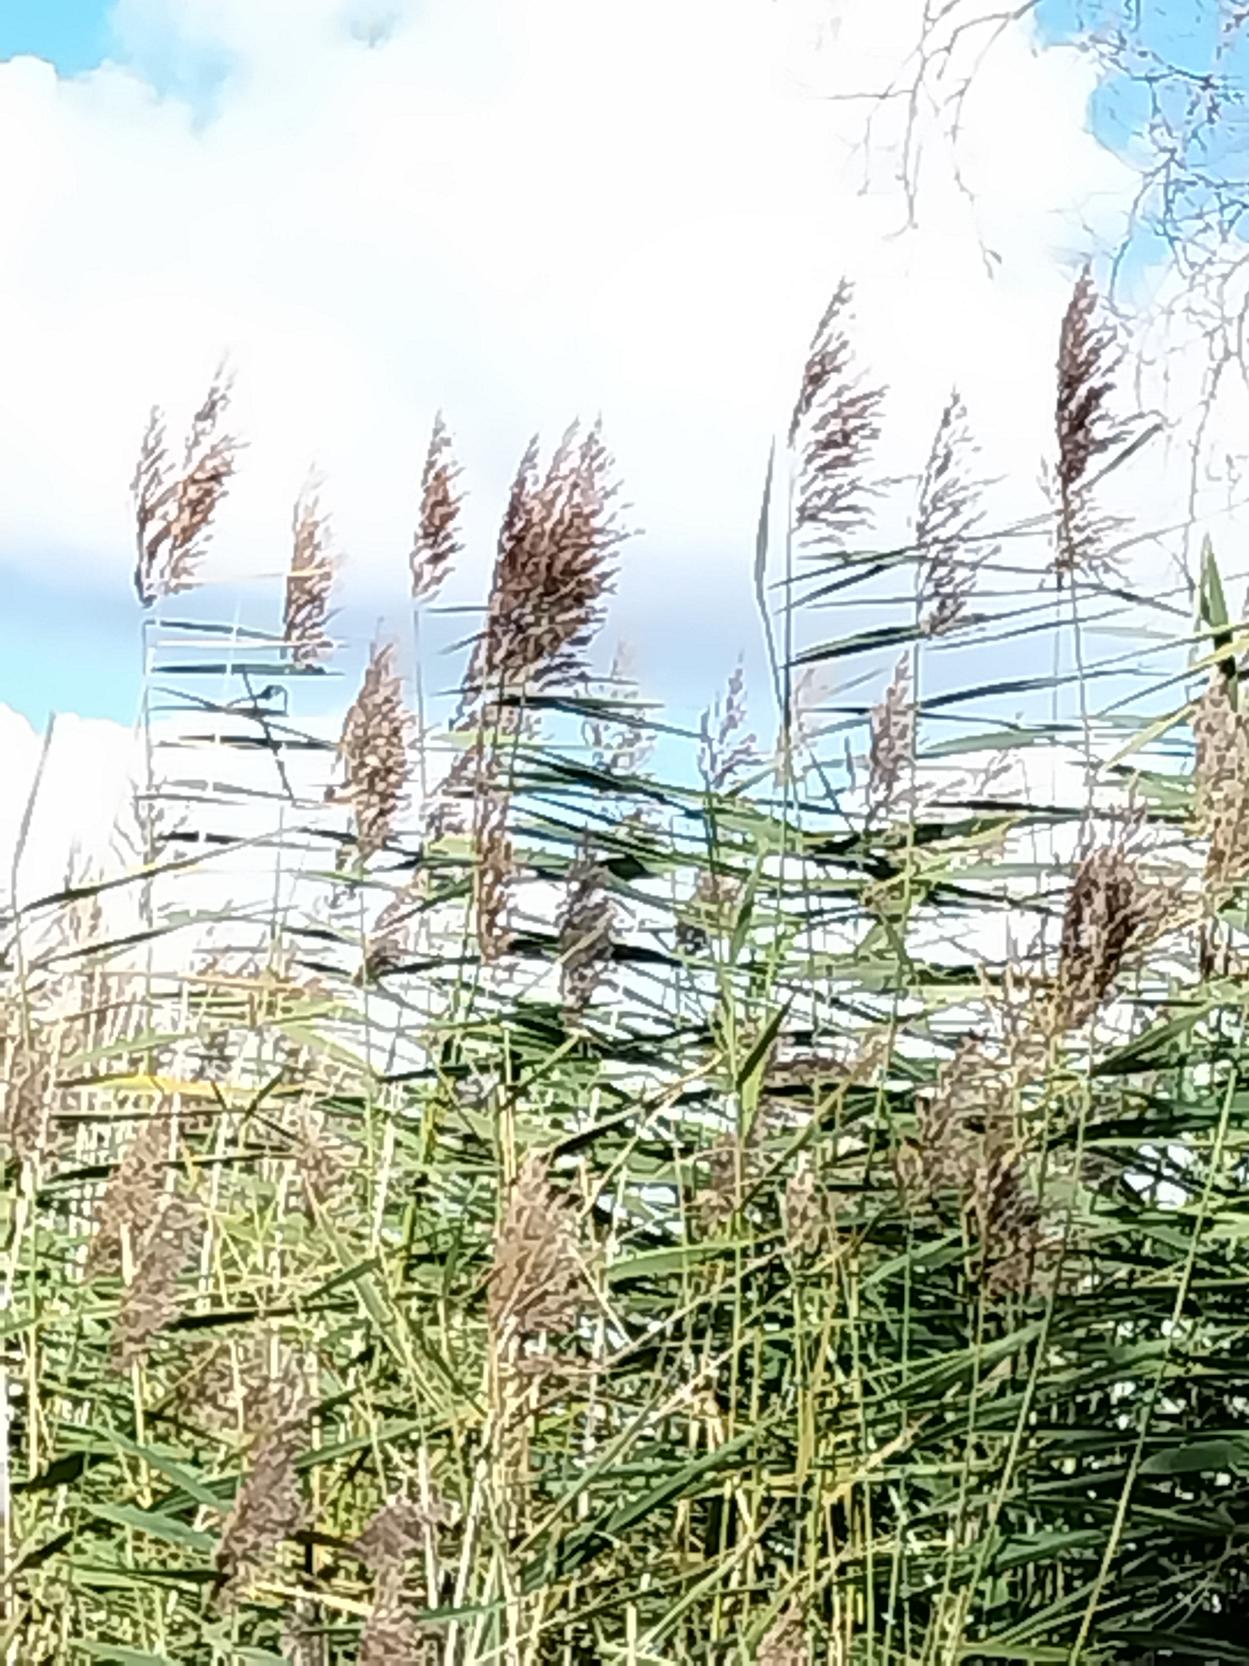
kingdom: Plantae
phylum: Tracheophyta
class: Liliopsida
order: Poales
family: Poaceae
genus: Phragmites
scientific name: Phragmites australis
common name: Tagrør
